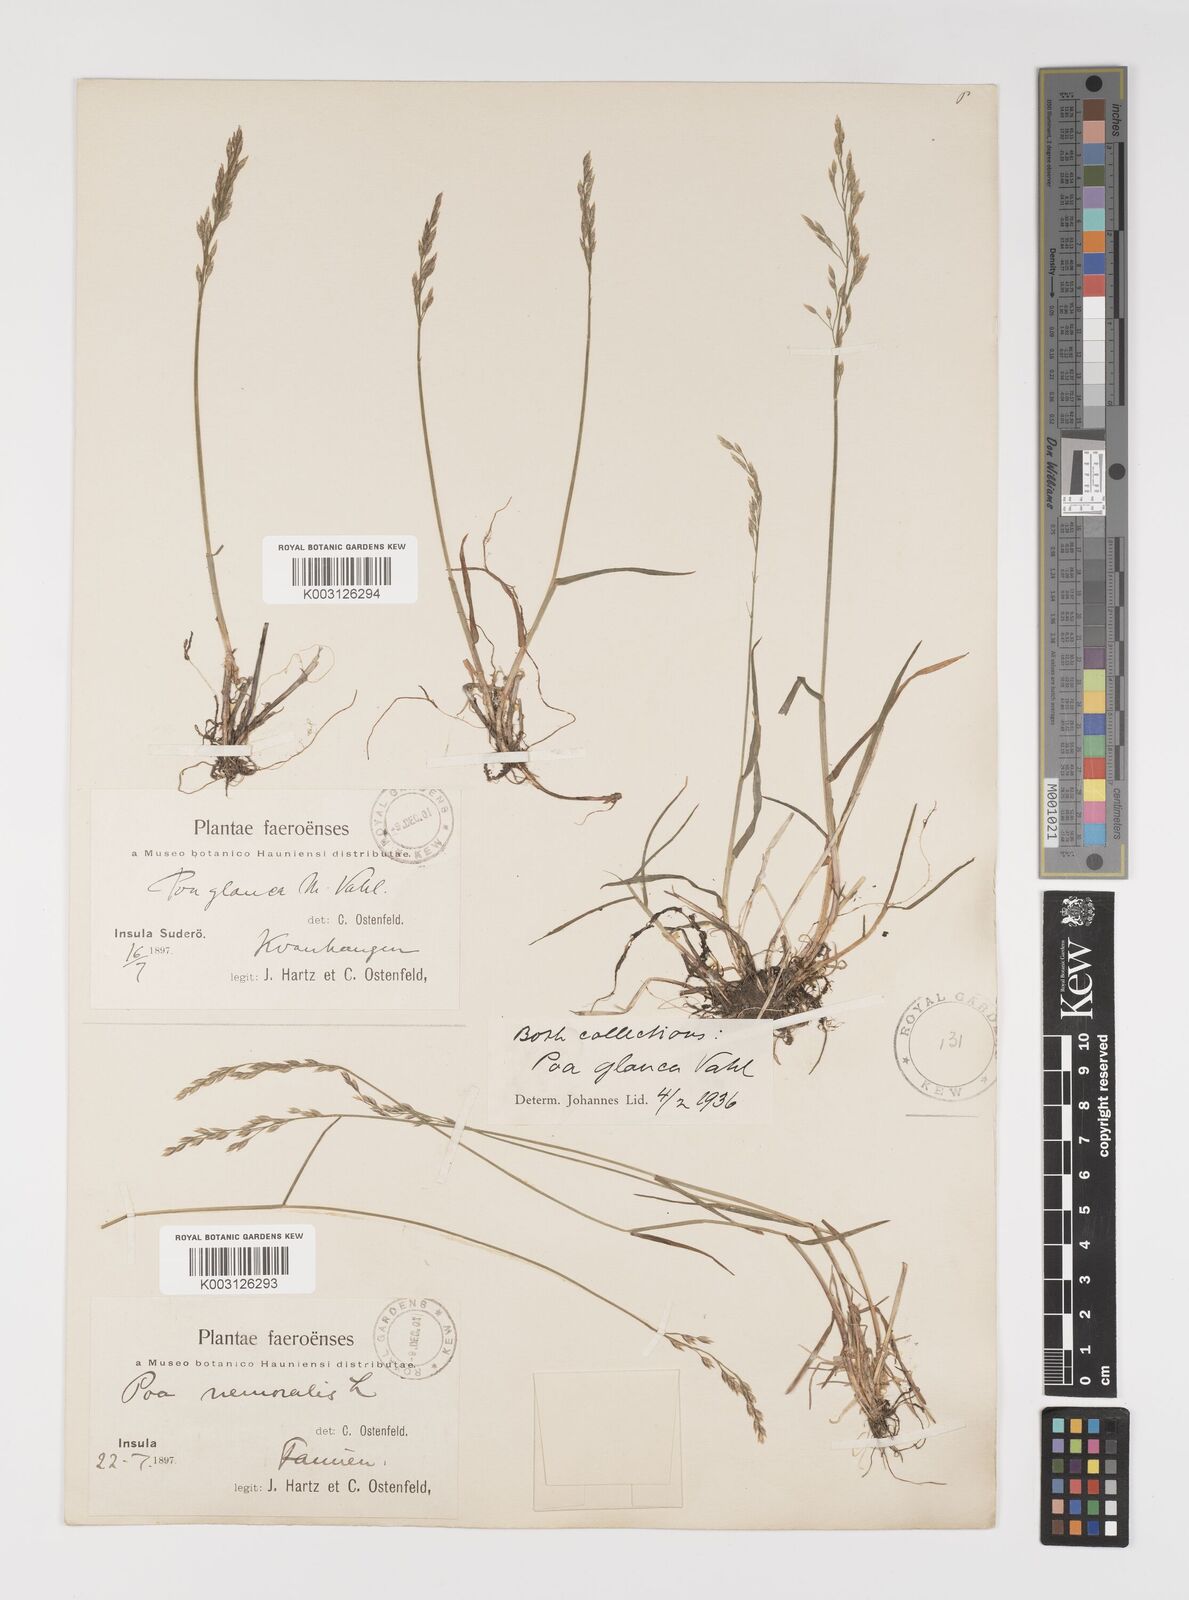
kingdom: Plantae
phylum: Tracheophyta
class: Liliopsida
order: Poales
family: Poaceae
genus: Poa
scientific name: Poa glauca
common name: Glaucous bluegrass
